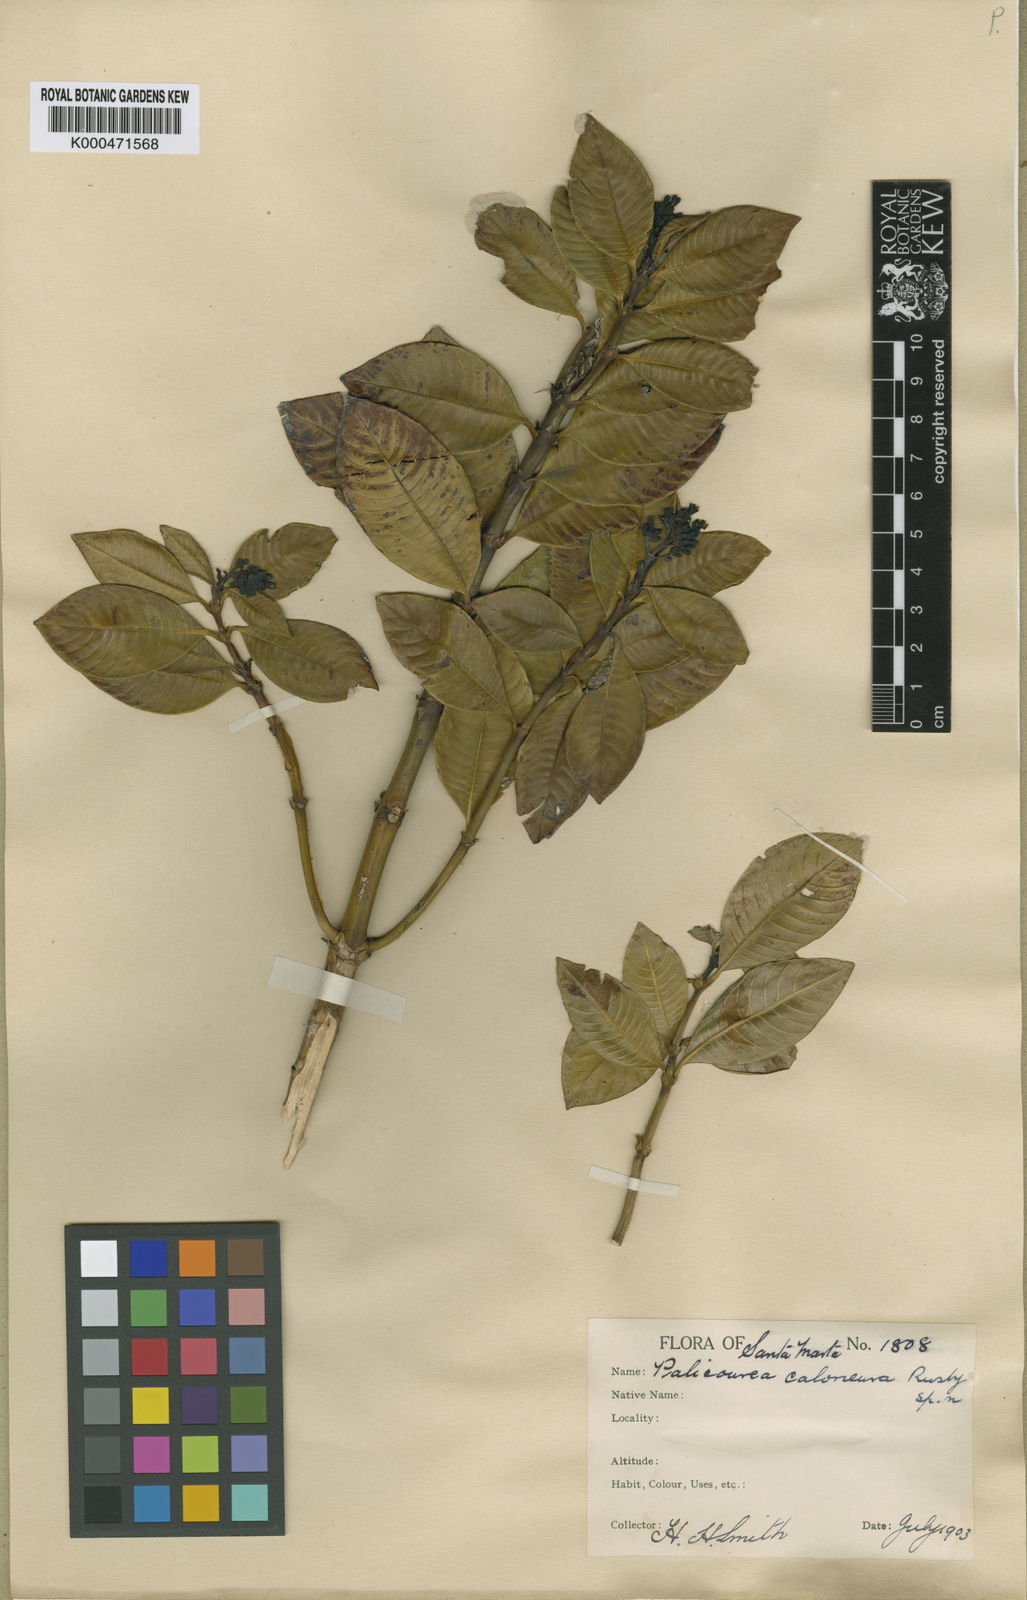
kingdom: Plantae
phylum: Tracheophyta
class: Magnoliopsida
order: Gentianales
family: Rubiaceae
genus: Palicourea
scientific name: Palicourea caloneura
